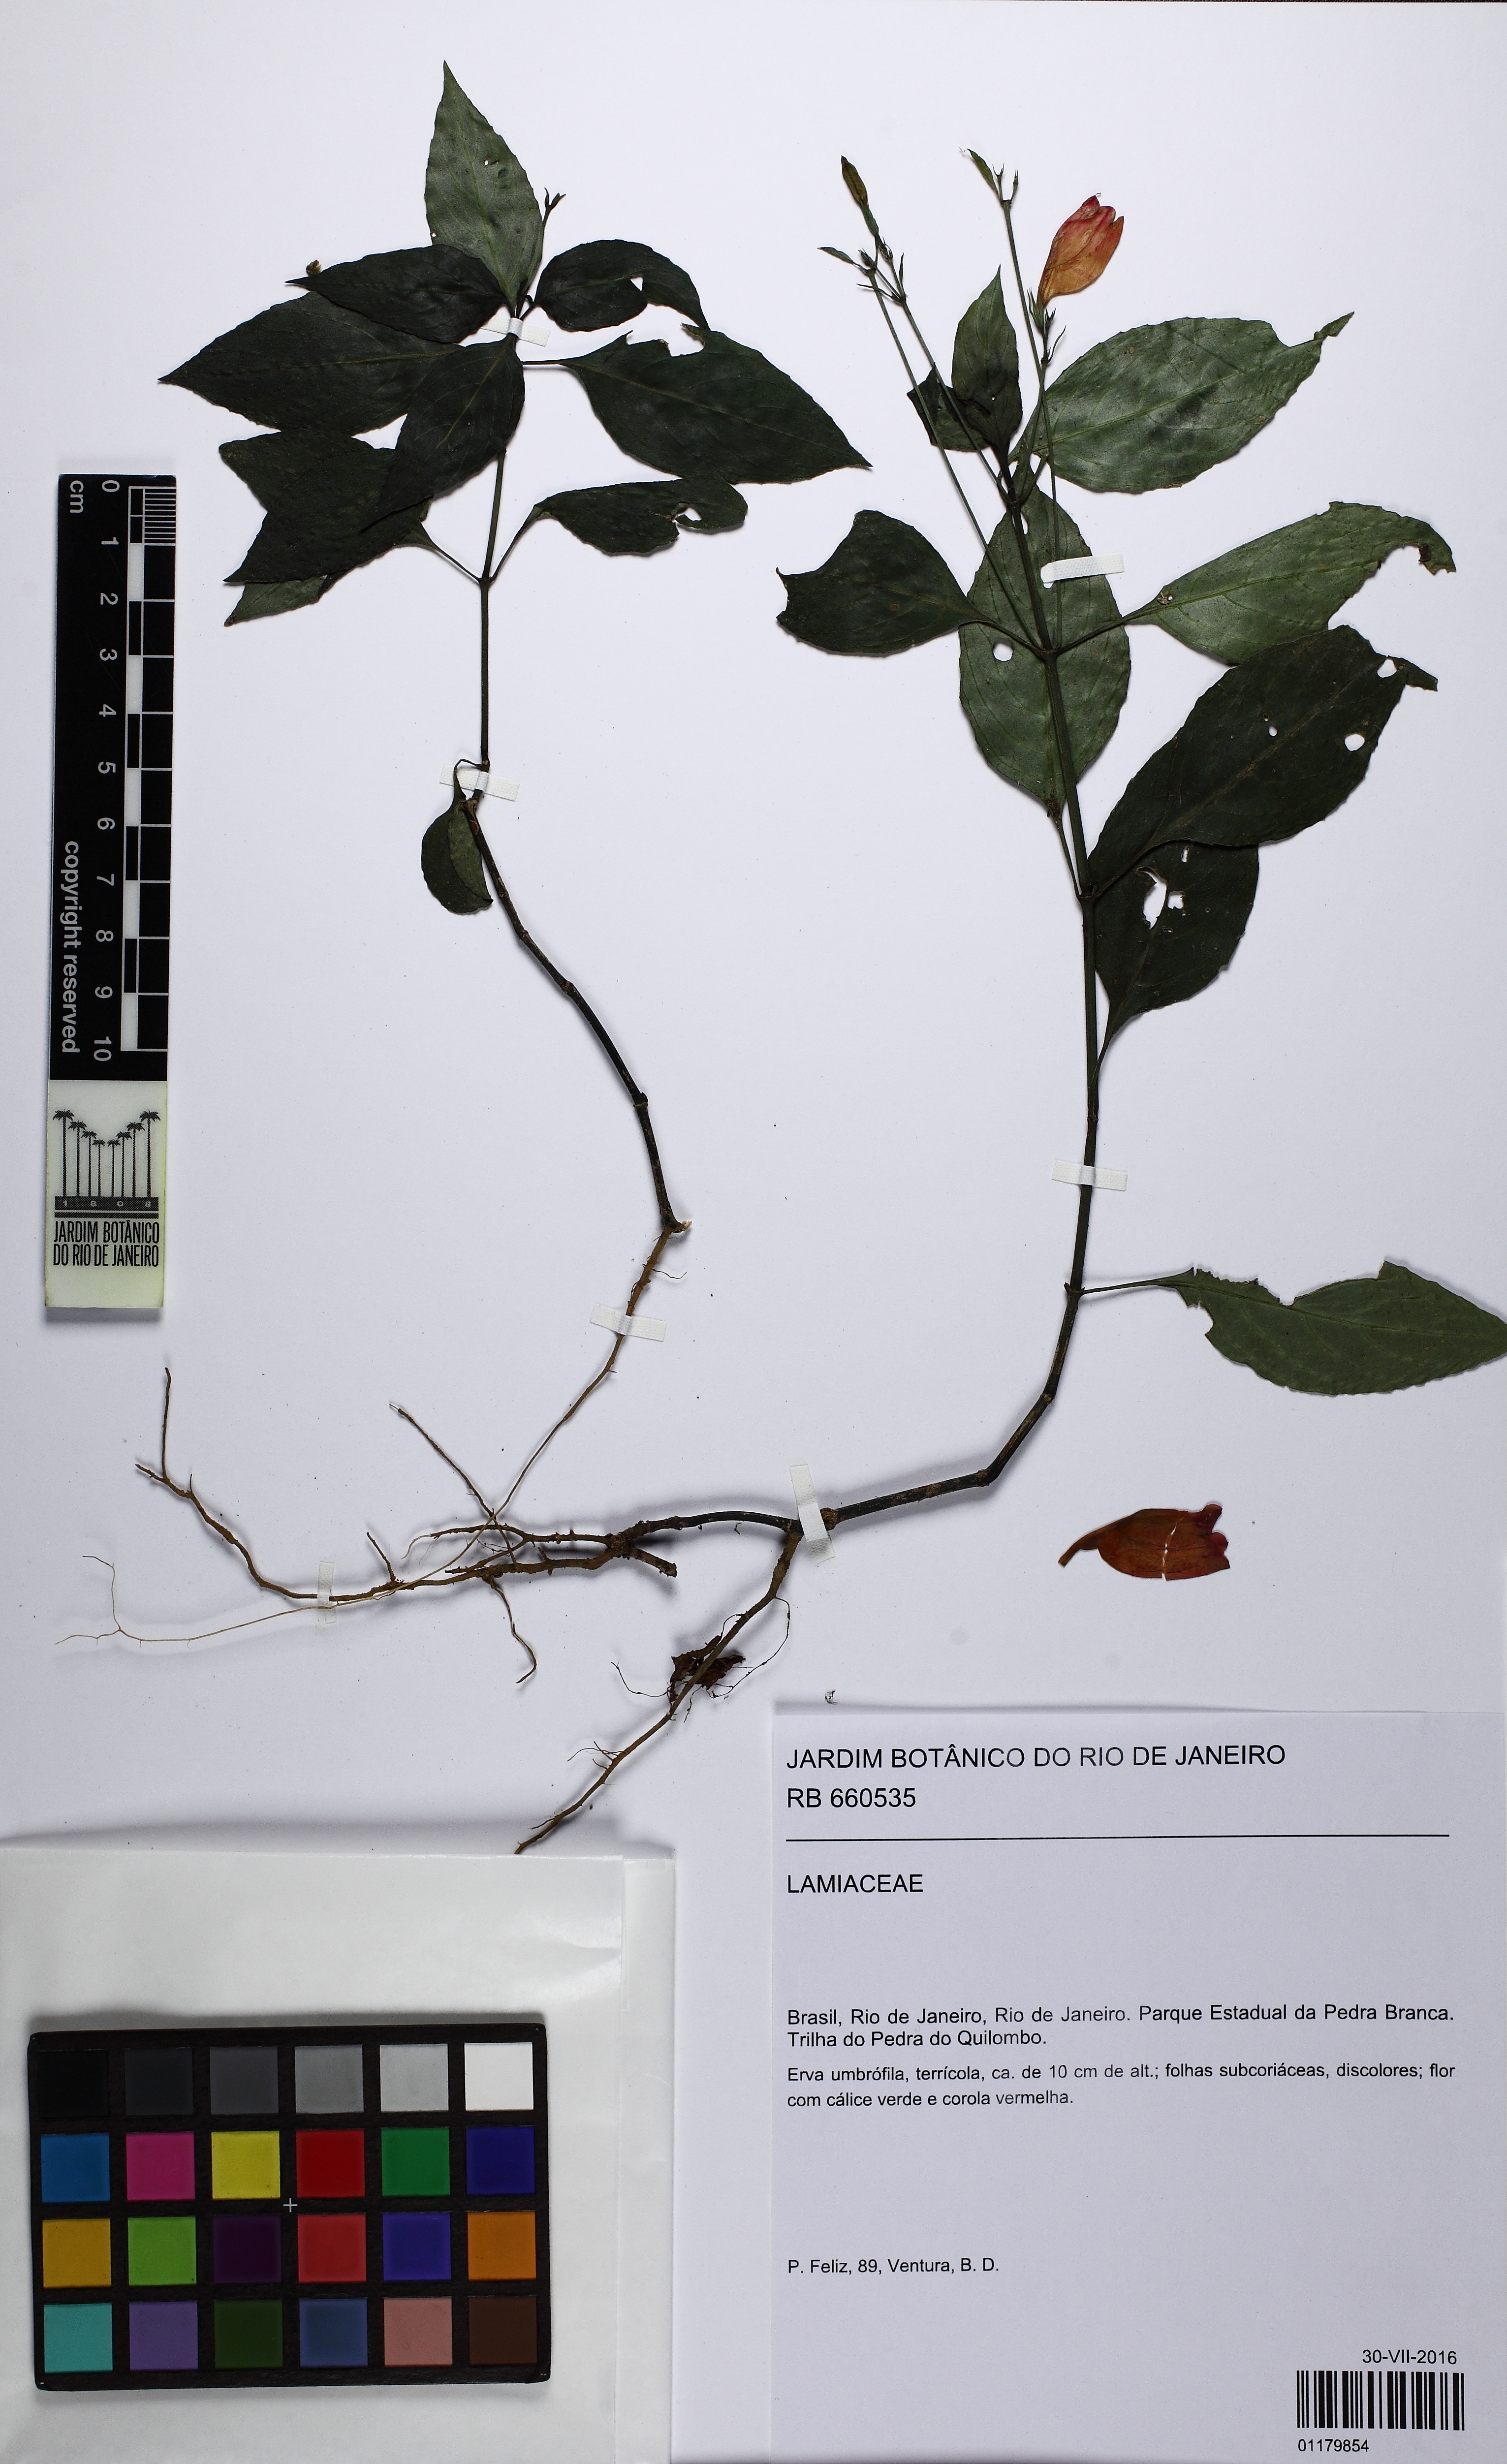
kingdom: Plantae
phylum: Tracheophyta
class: Magnoliopsida
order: Lamiales
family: Acanthaceae
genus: Ruellia
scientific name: Ruellia brevifolia
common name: Tropical wild petunia
